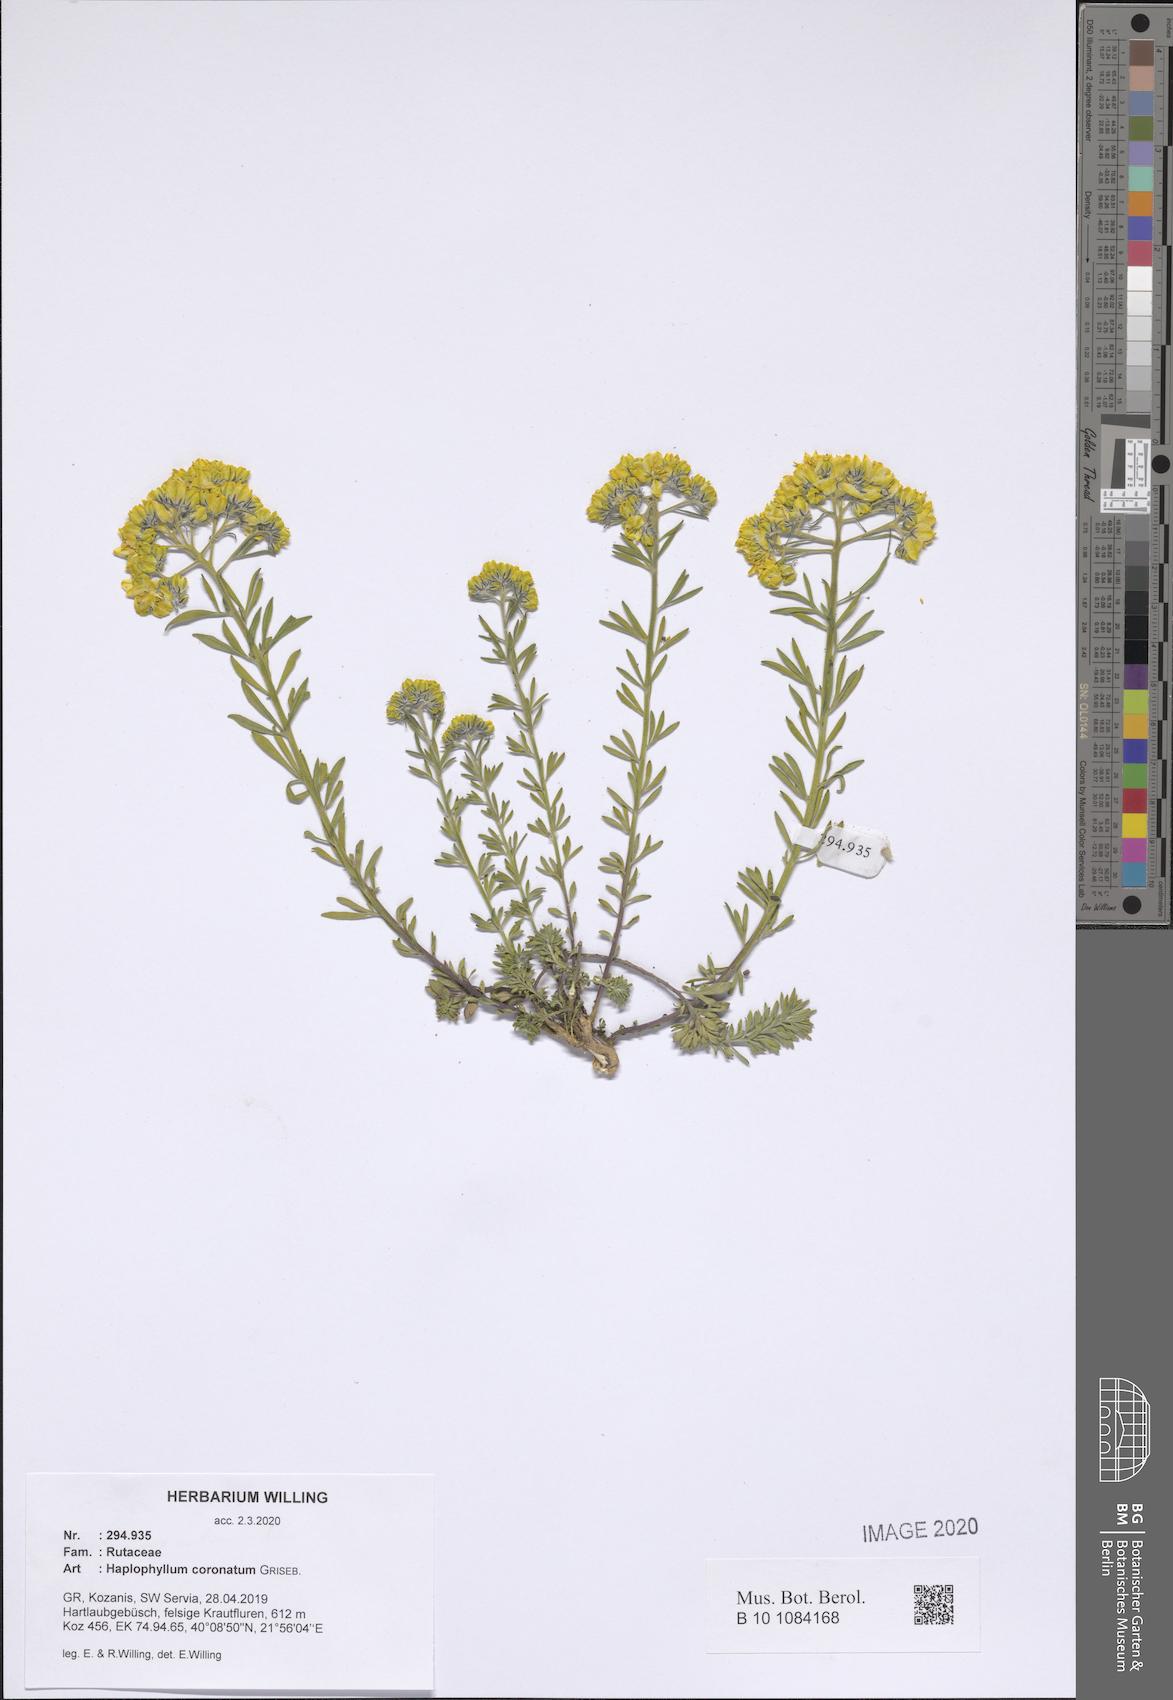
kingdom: Plantae
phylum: Tracheophyta
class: Magnoliopsida
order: Sapindales
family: Rutaceae
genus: Haplophyllum
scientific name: Haplophyllum coronatum
